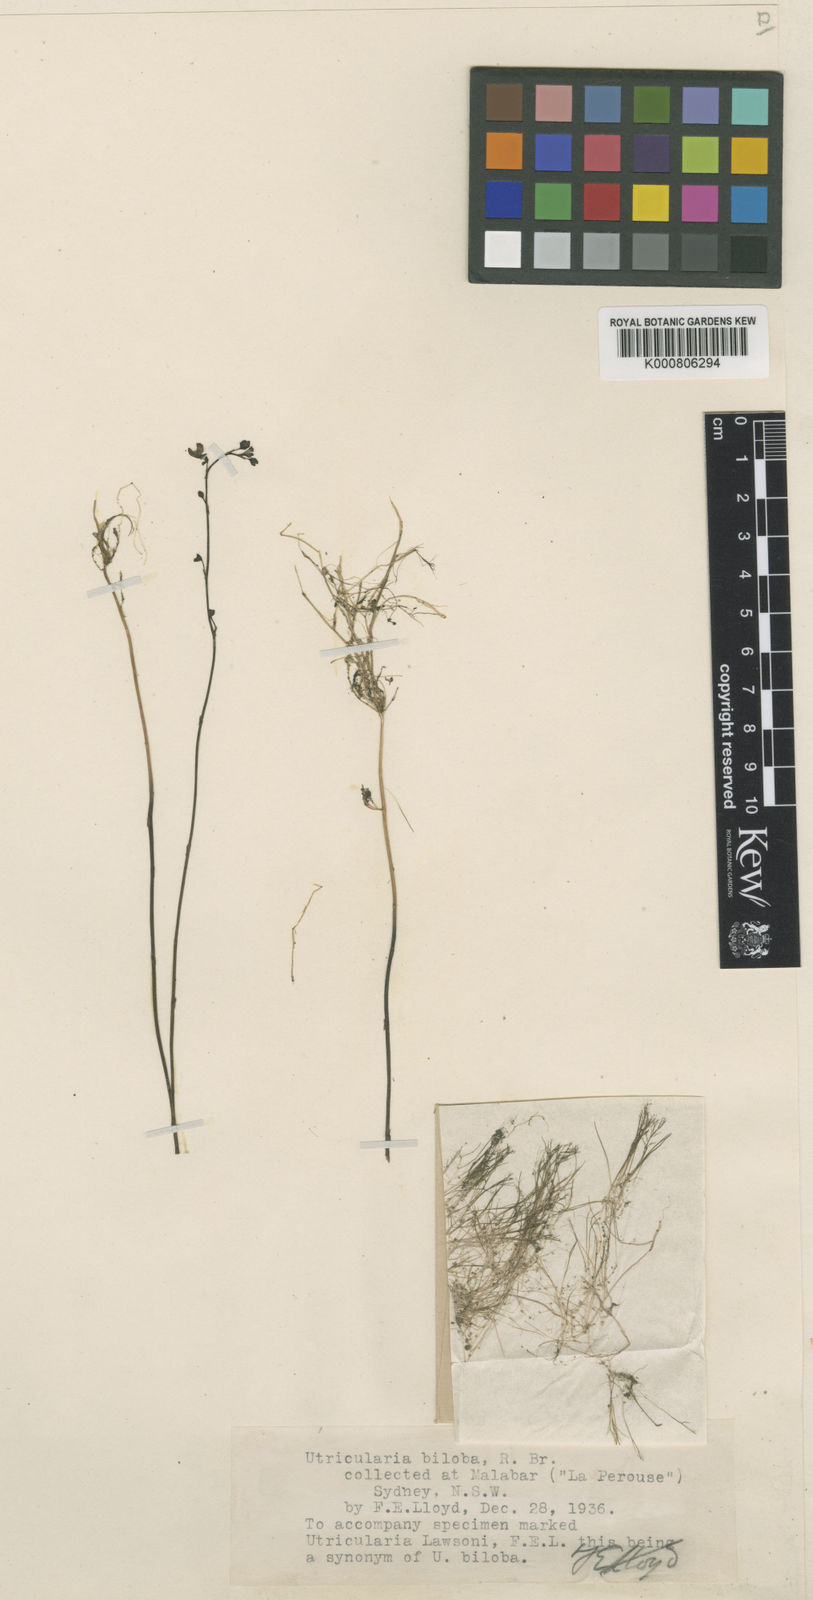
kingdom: Plantae
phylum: Tracheophyta
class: Magnoliopsida
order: Lamiales
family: Lentibulariaceae
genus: Utricularia
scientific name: Utricularia biloba
